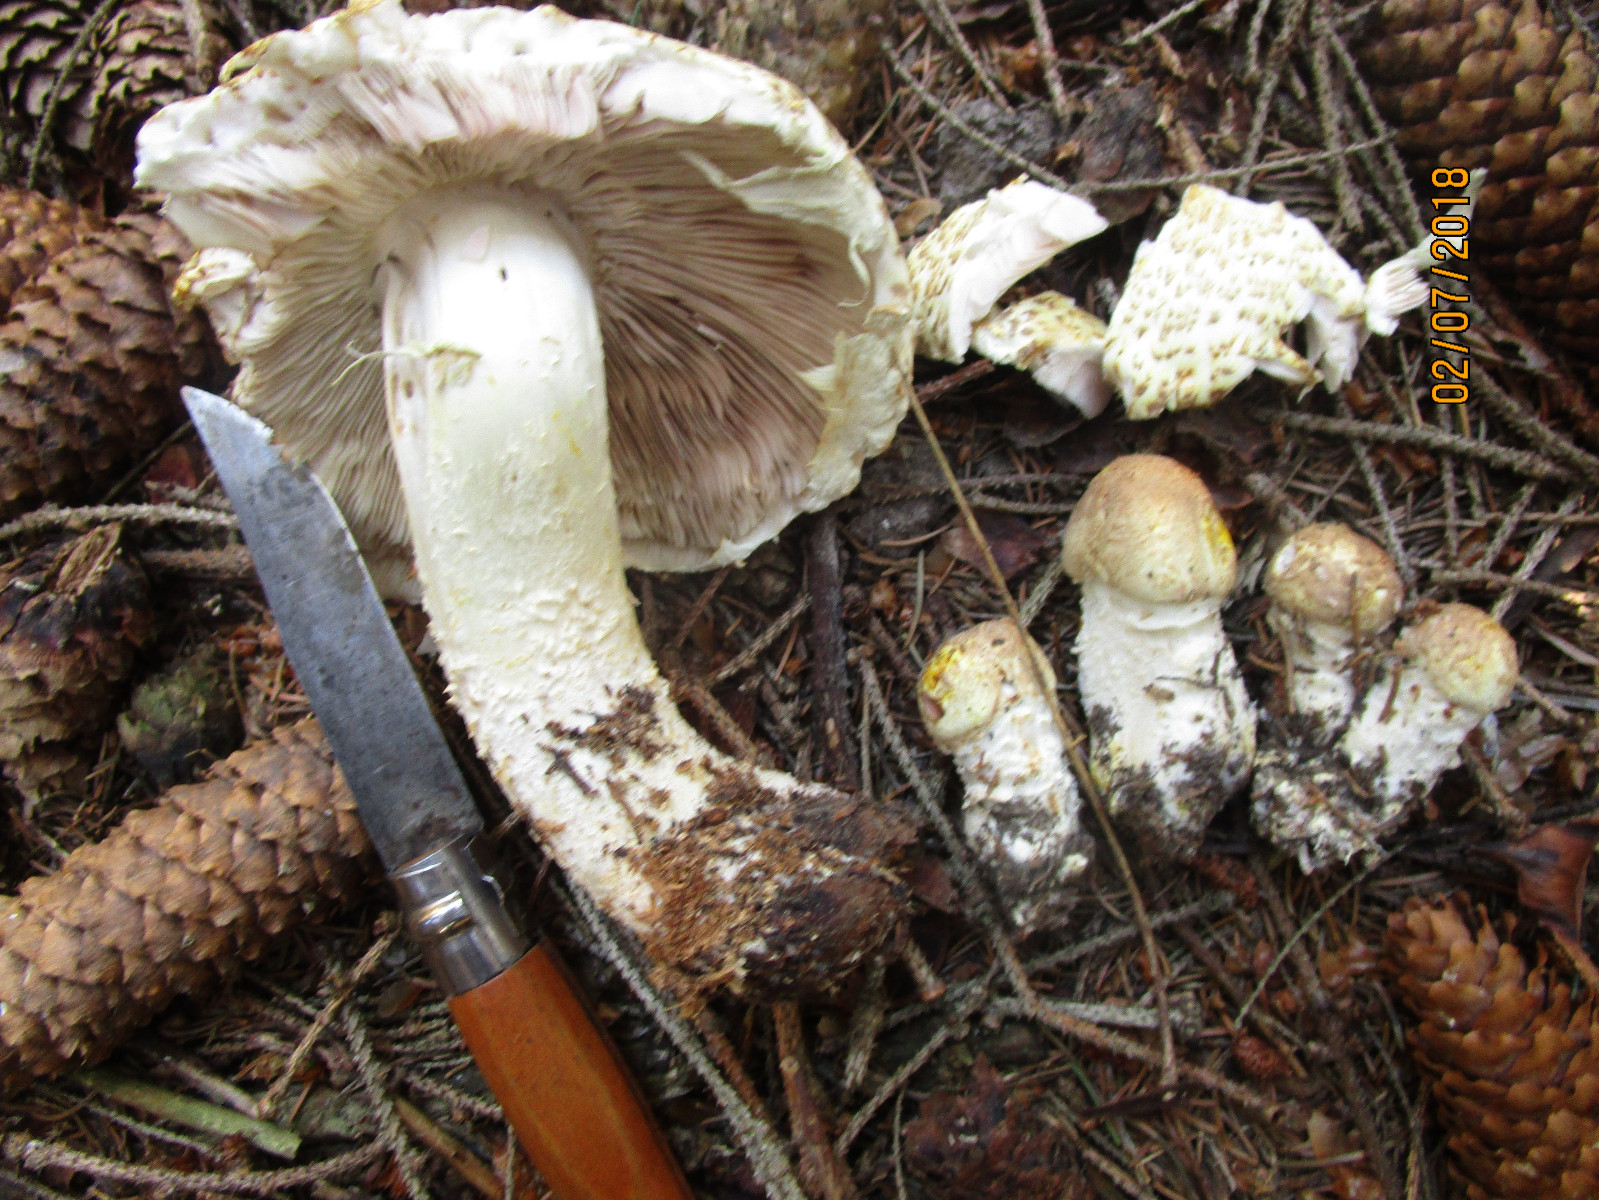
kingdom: Fungi
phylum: Basidiomycota
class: Agaricomycetes
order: Agaricales
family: Agaricaceae
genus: Agaricus
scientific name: Agaricus augustus
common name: prægtig champignon
